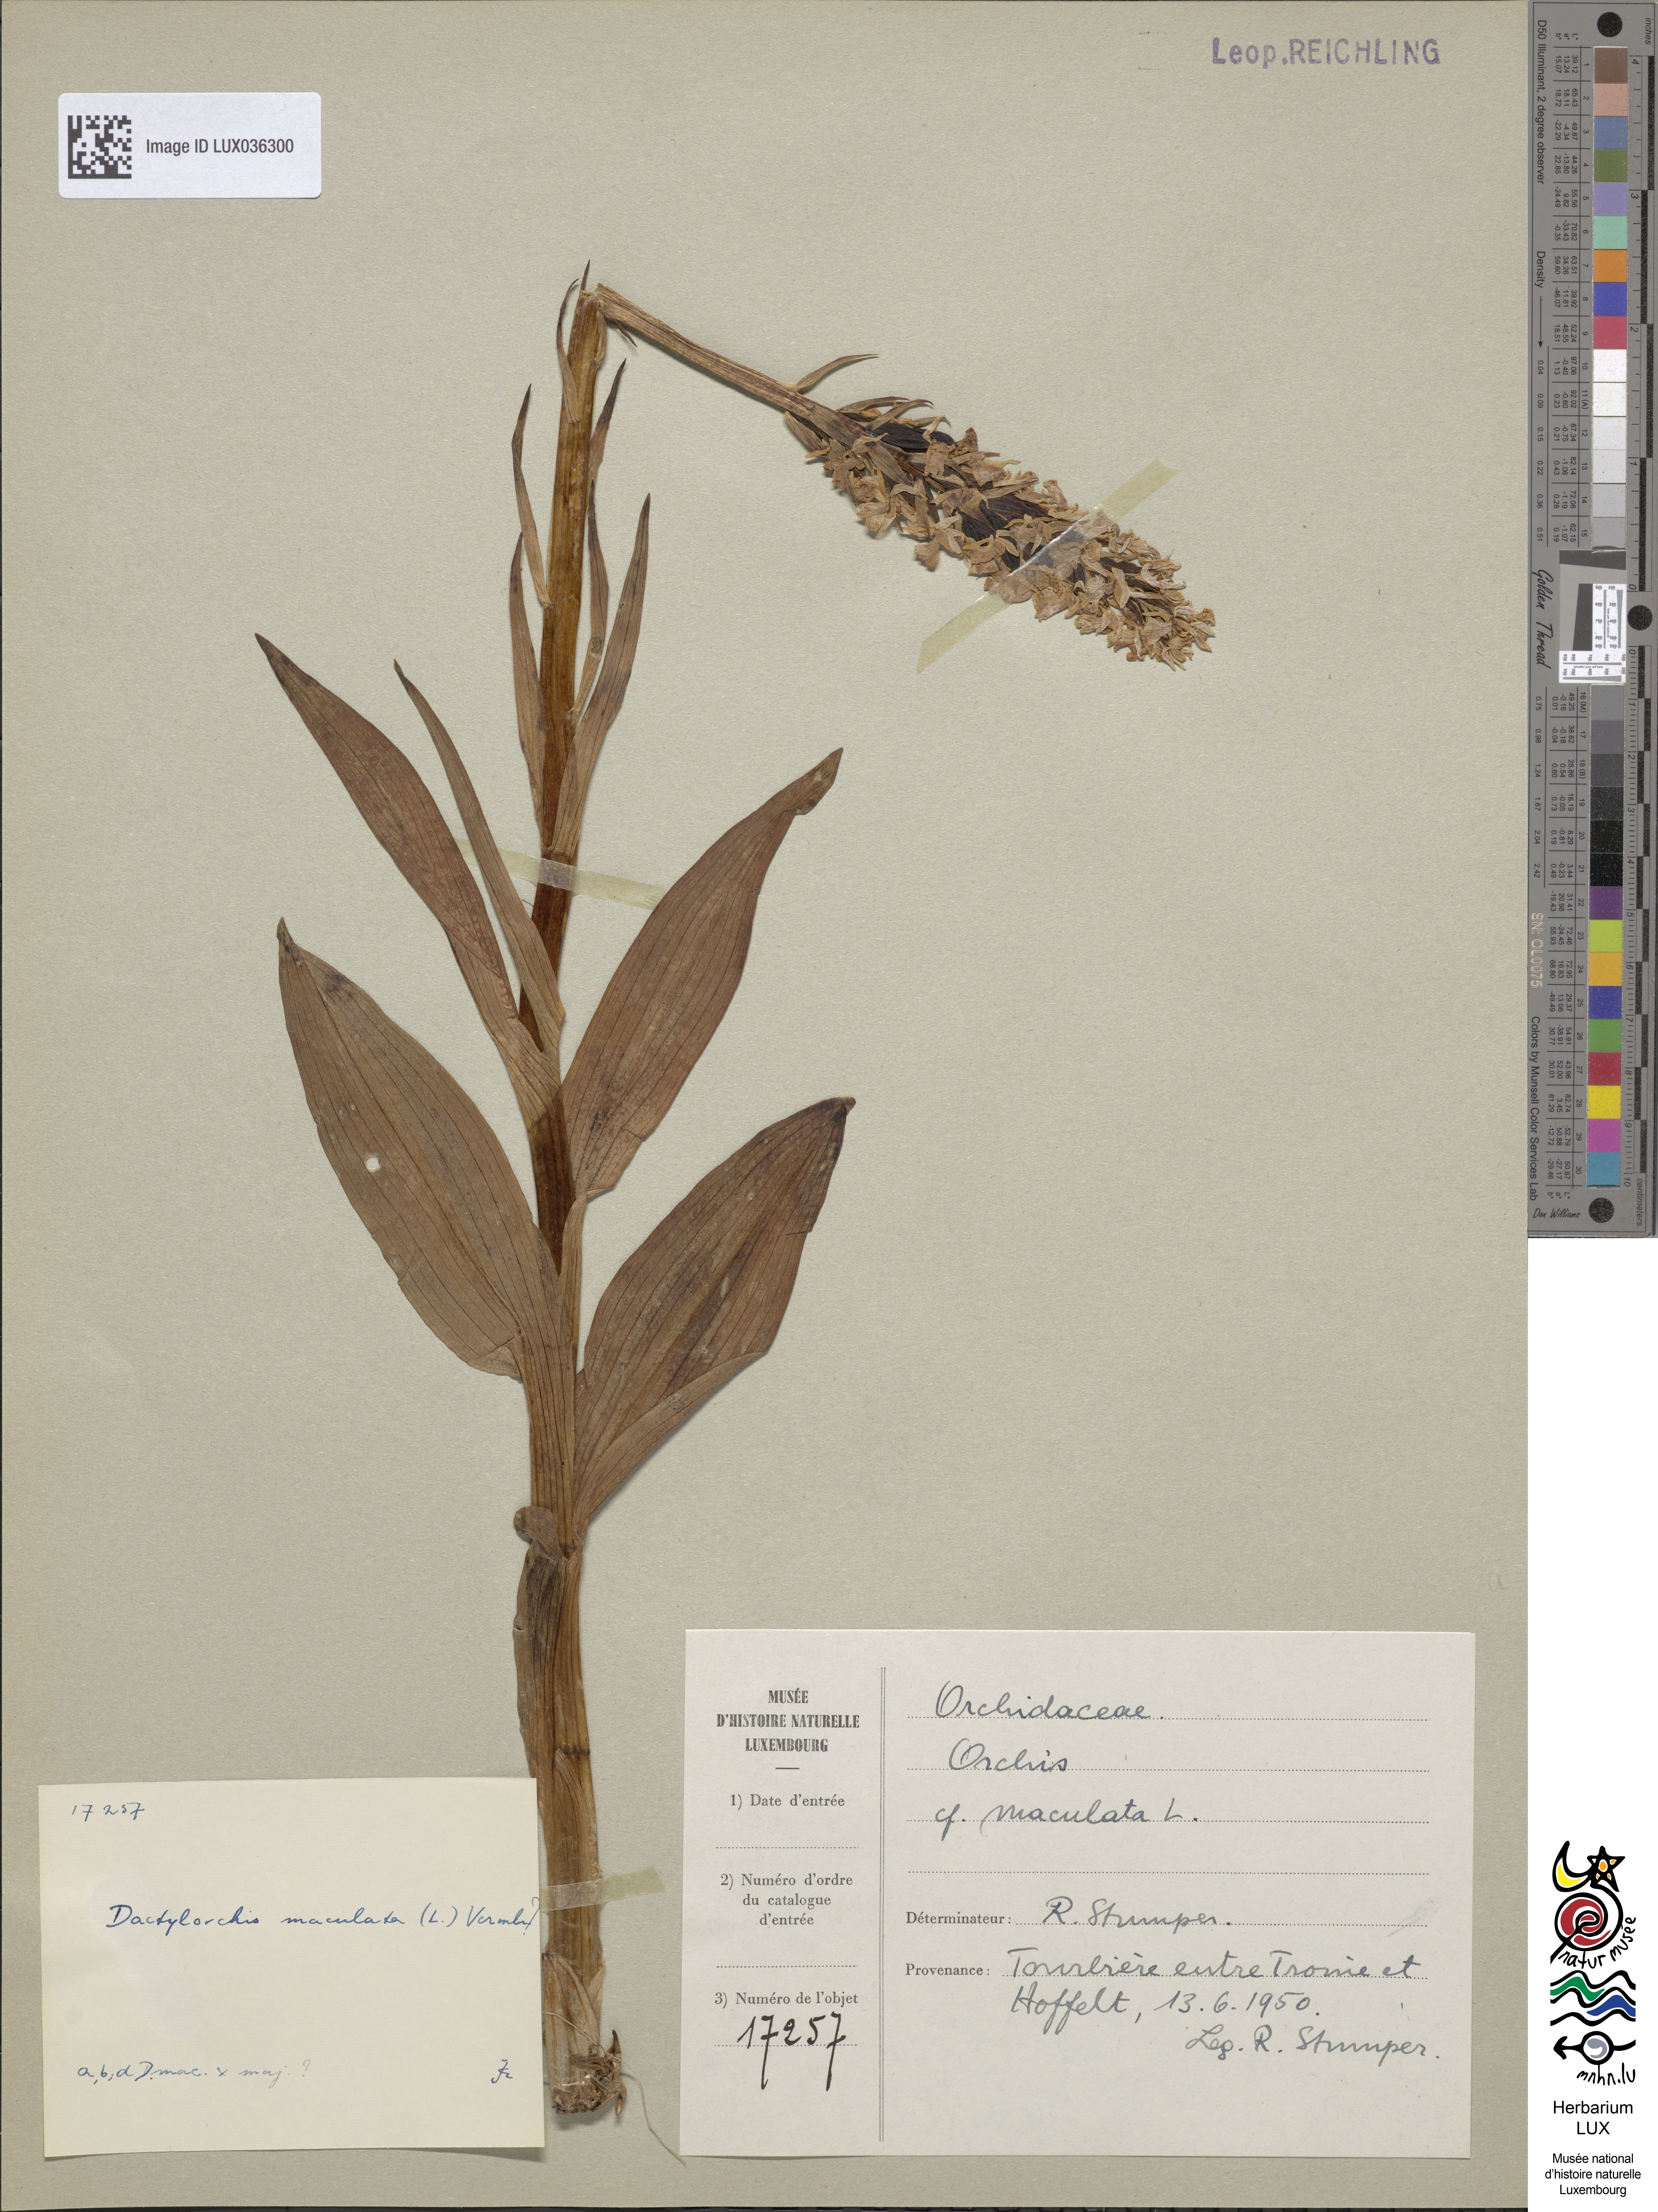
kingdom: Plantae
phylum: Tracheophyta
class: Liliopsida
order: Asparagales
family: Orchidaceae
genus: Dactylorhiza
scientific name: Dactylorhiza maculata
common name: Heath spotted-orchid
